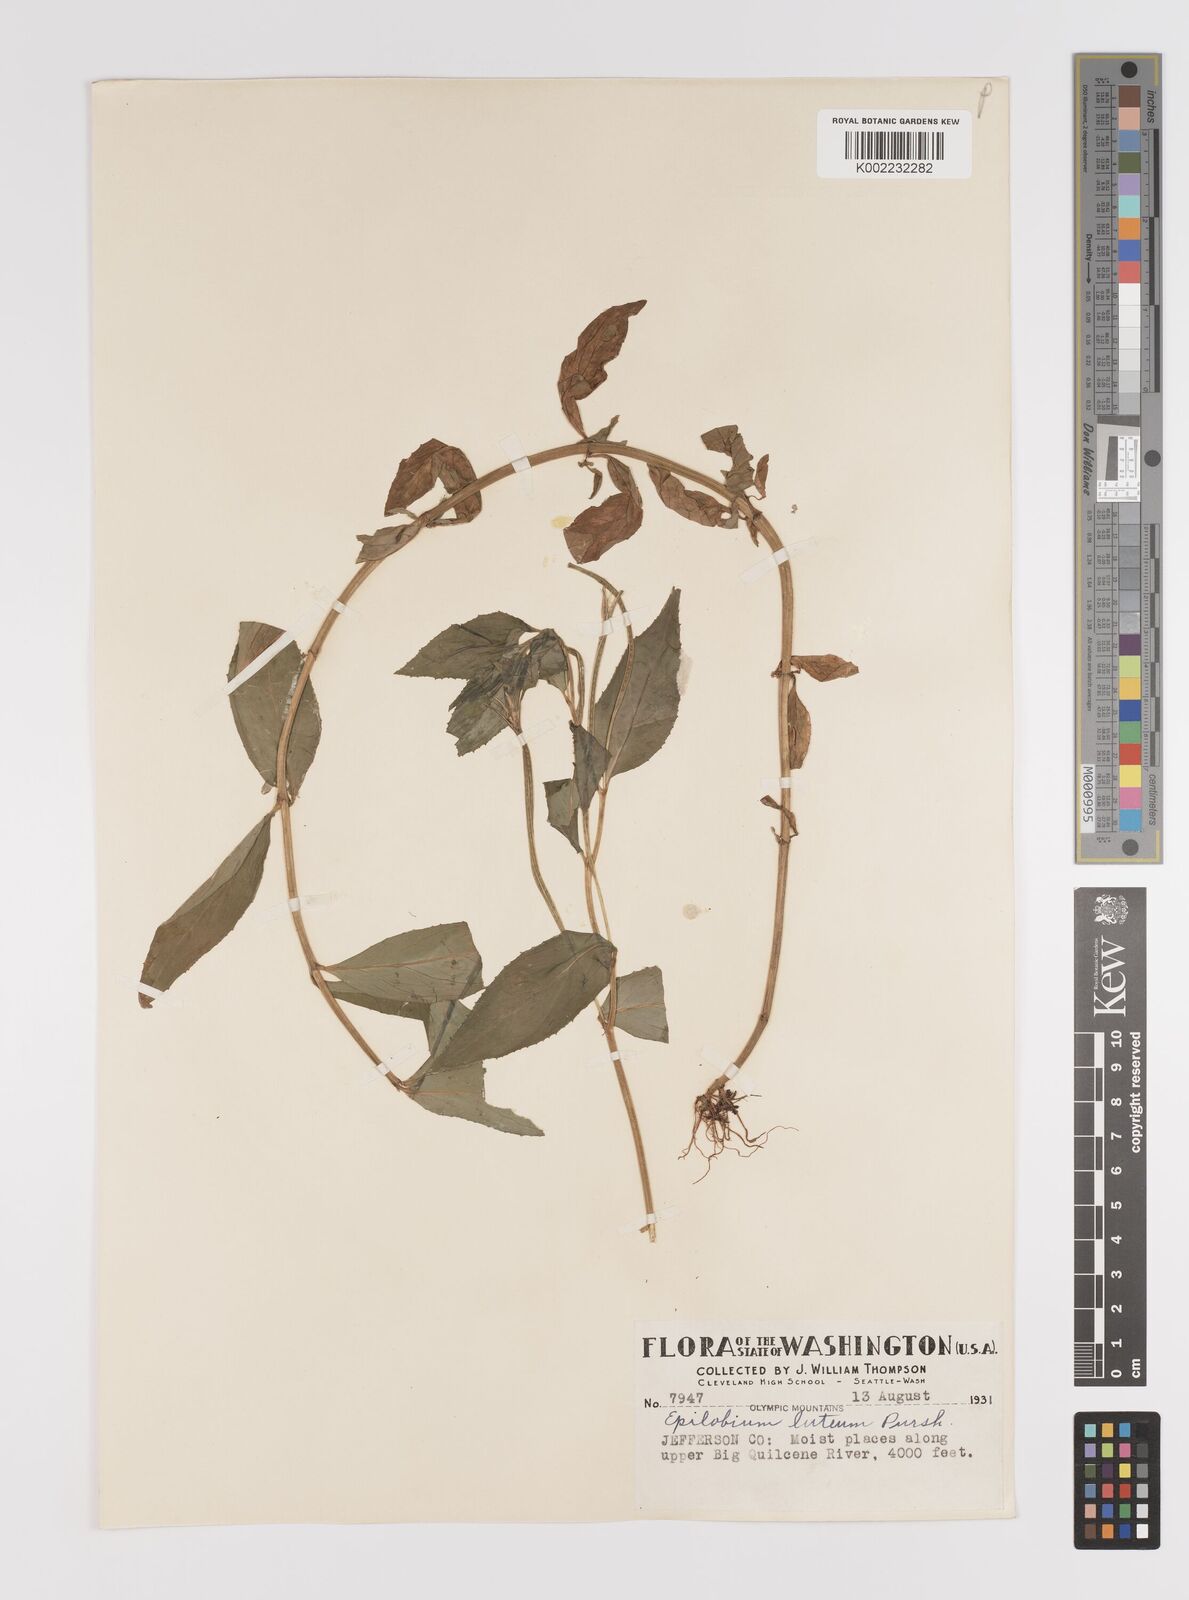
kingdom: Plantae
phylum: Tracheophyta
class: Magnoliopsida
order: Myrtales
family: Onagraceae
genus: Epilobium
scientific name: Epilobium luteum
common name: Yellow willowherb
